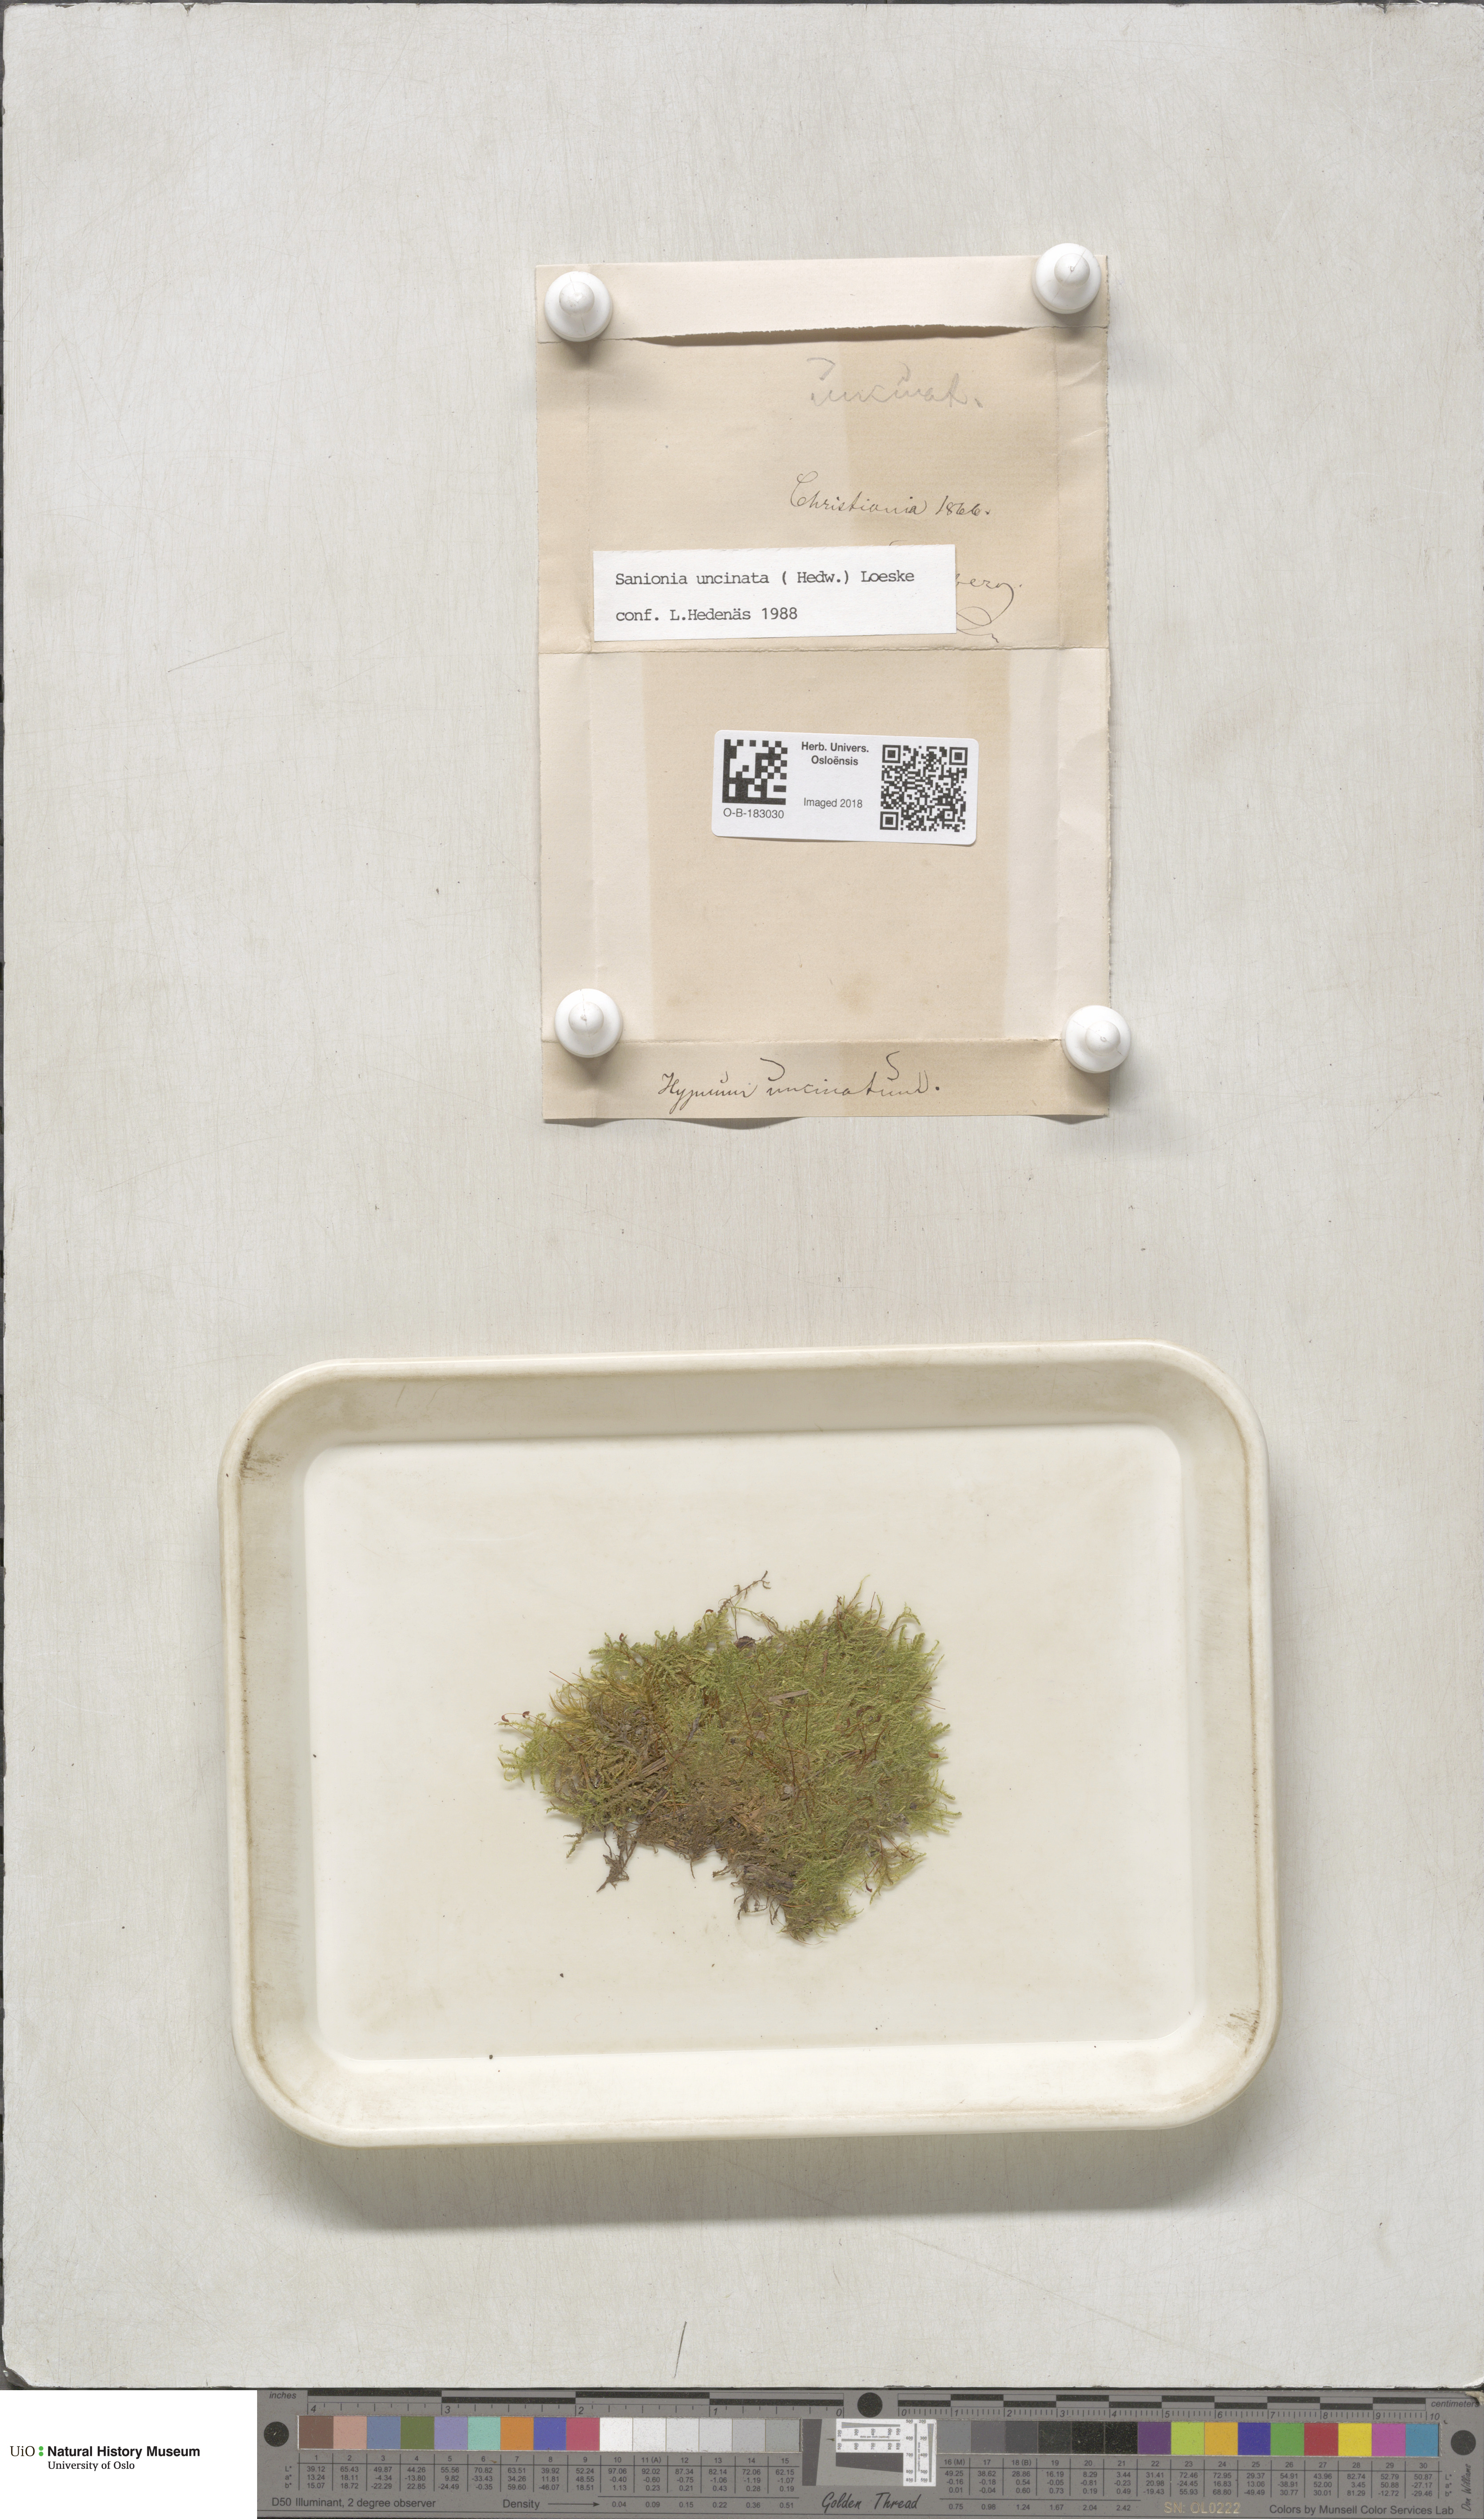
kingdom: Plantae
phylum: Bryophyta
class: Bryopsida
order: Hypnales
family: Scorpidiaceae
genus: Sanionia
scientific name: Sanionia uncinata
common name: Sickle moss
